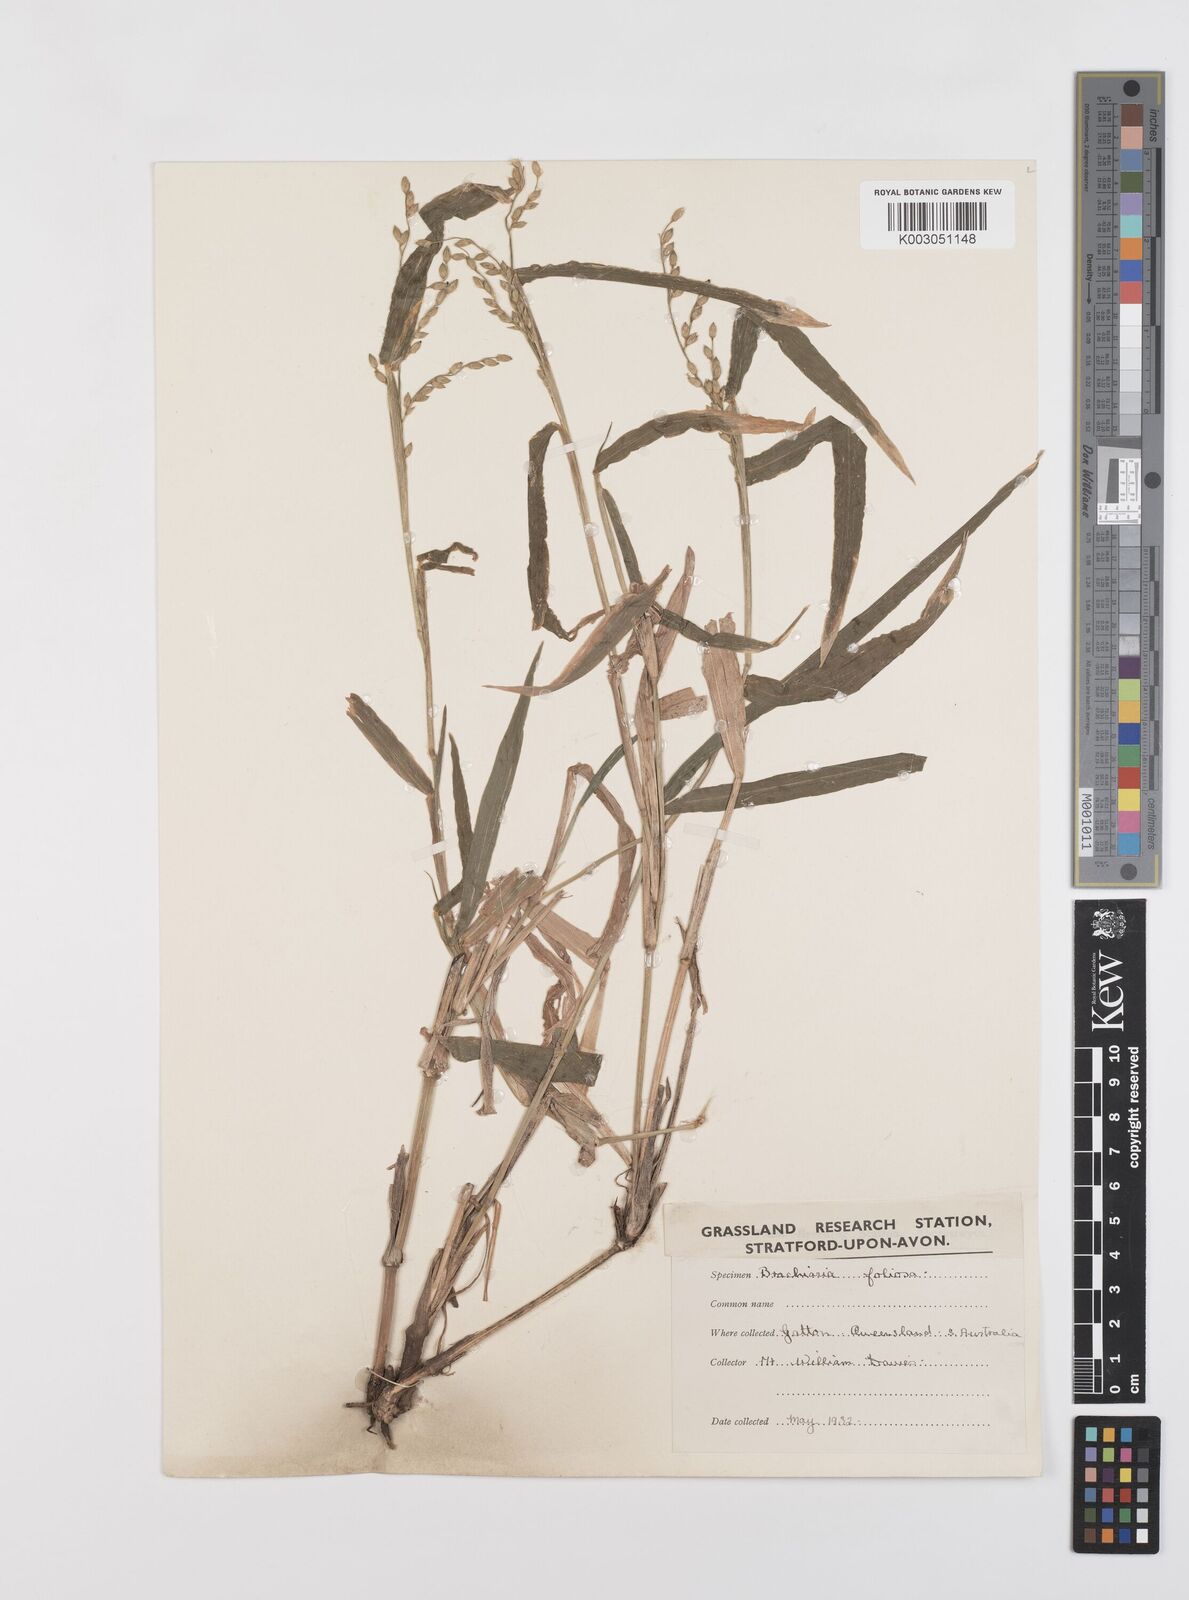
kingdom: Plantae
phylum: Tracheophyta
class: Liliopsida
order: Poales
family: Poaceae
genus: Urochloa
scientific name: Urochloa foliosa
